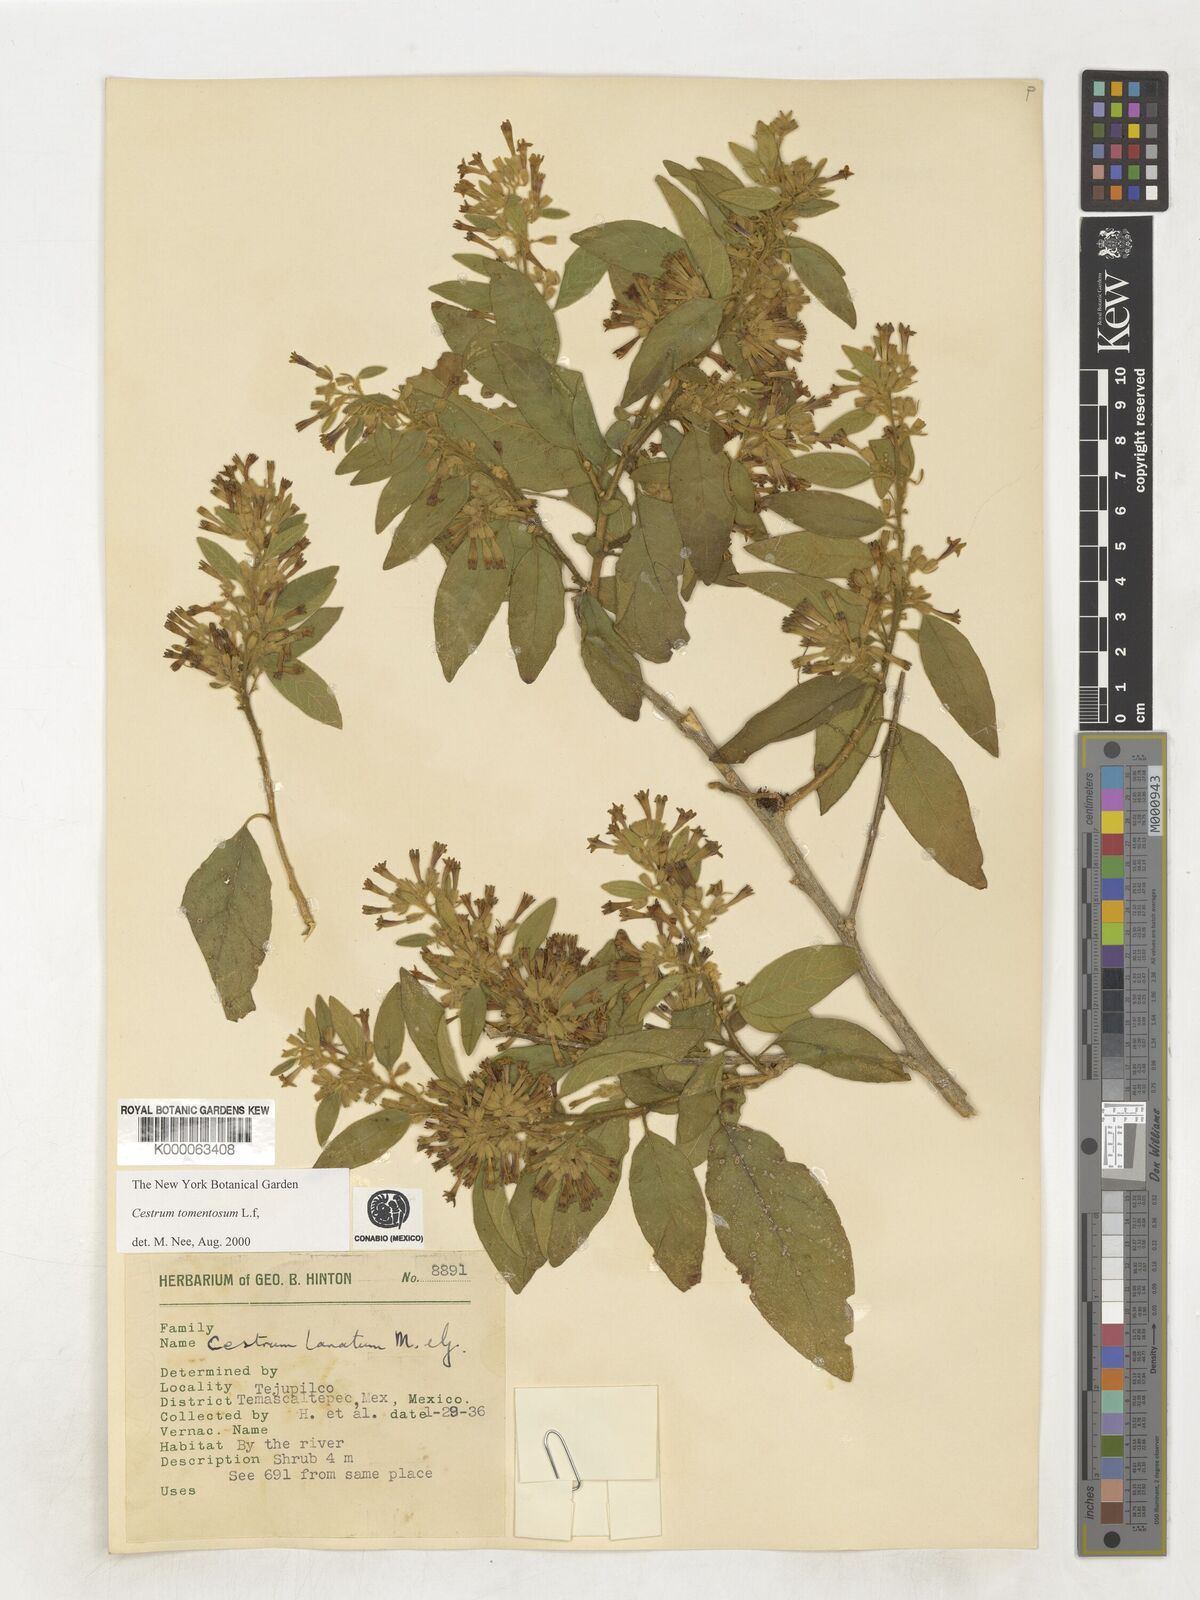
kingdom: Plantae
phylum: Tracheophyta
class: Magnoliopsida
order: Solanales
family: Solanaceae
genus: Cestrum
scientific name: Cestrum tomentosum
